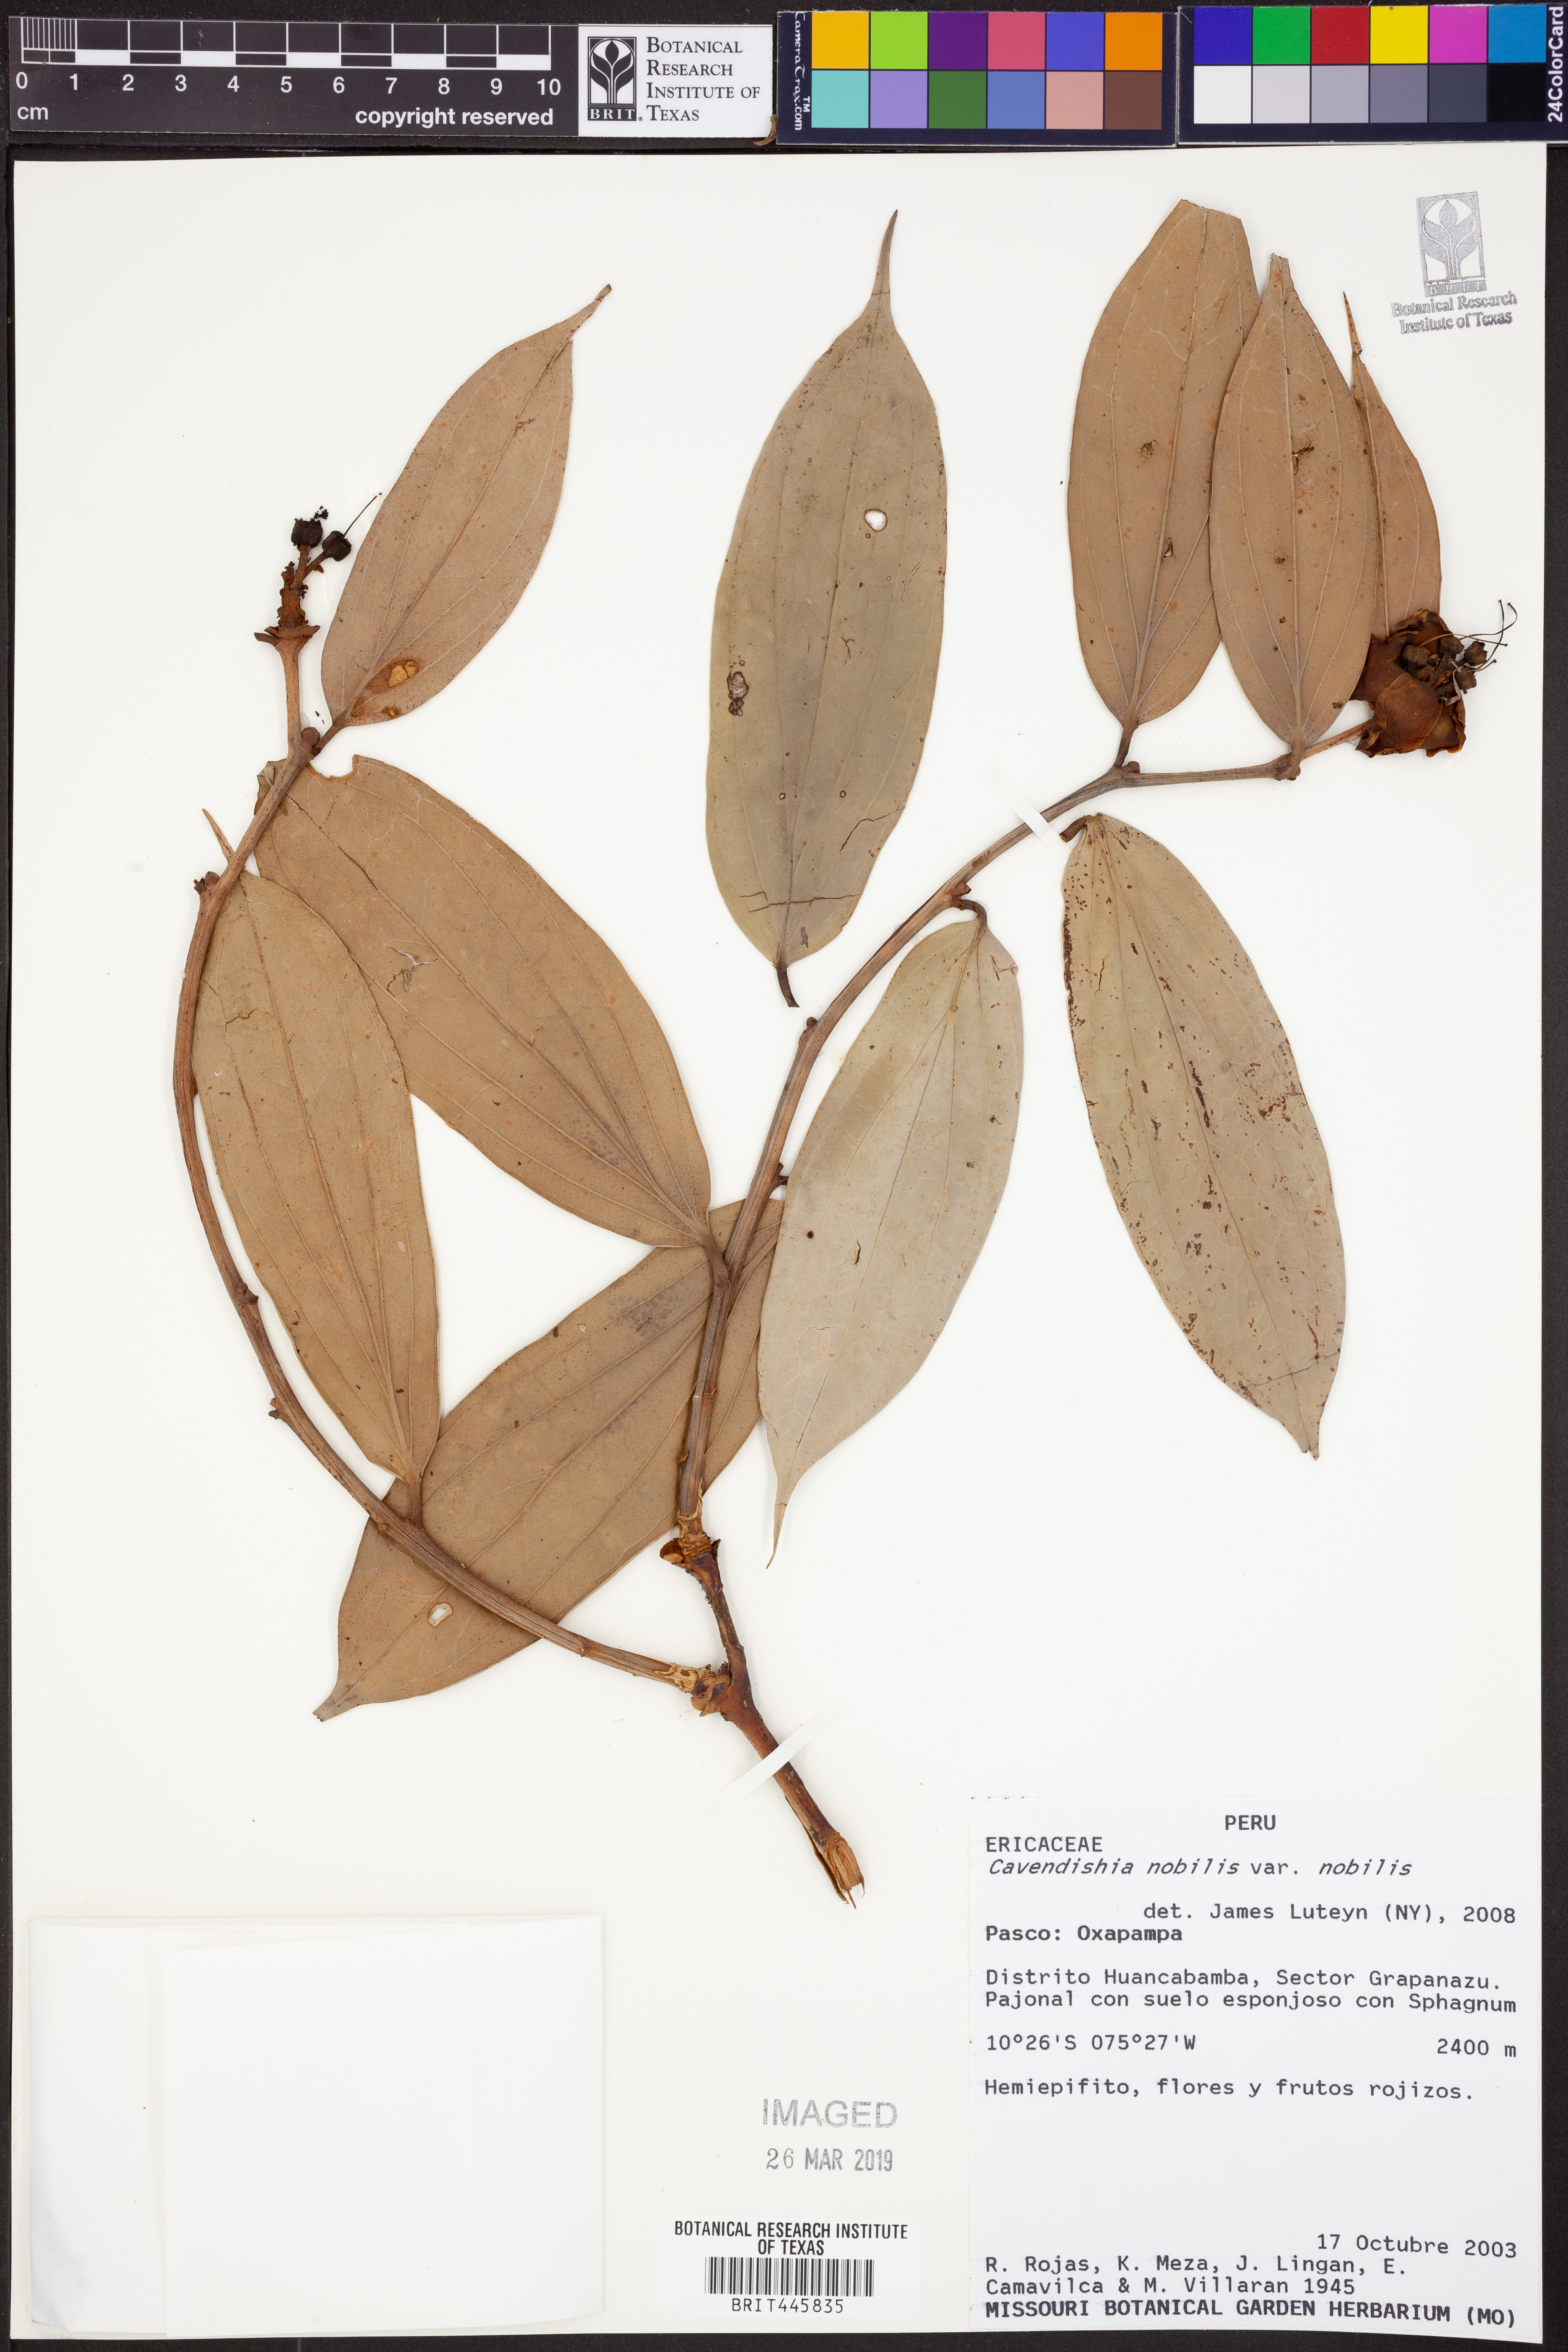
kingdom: Plantae
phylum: Tracheophyta
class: Magnoliopsida
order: Ericales
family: Ericaceae
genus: Cavendishia
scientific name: Cavendishia nobilis
